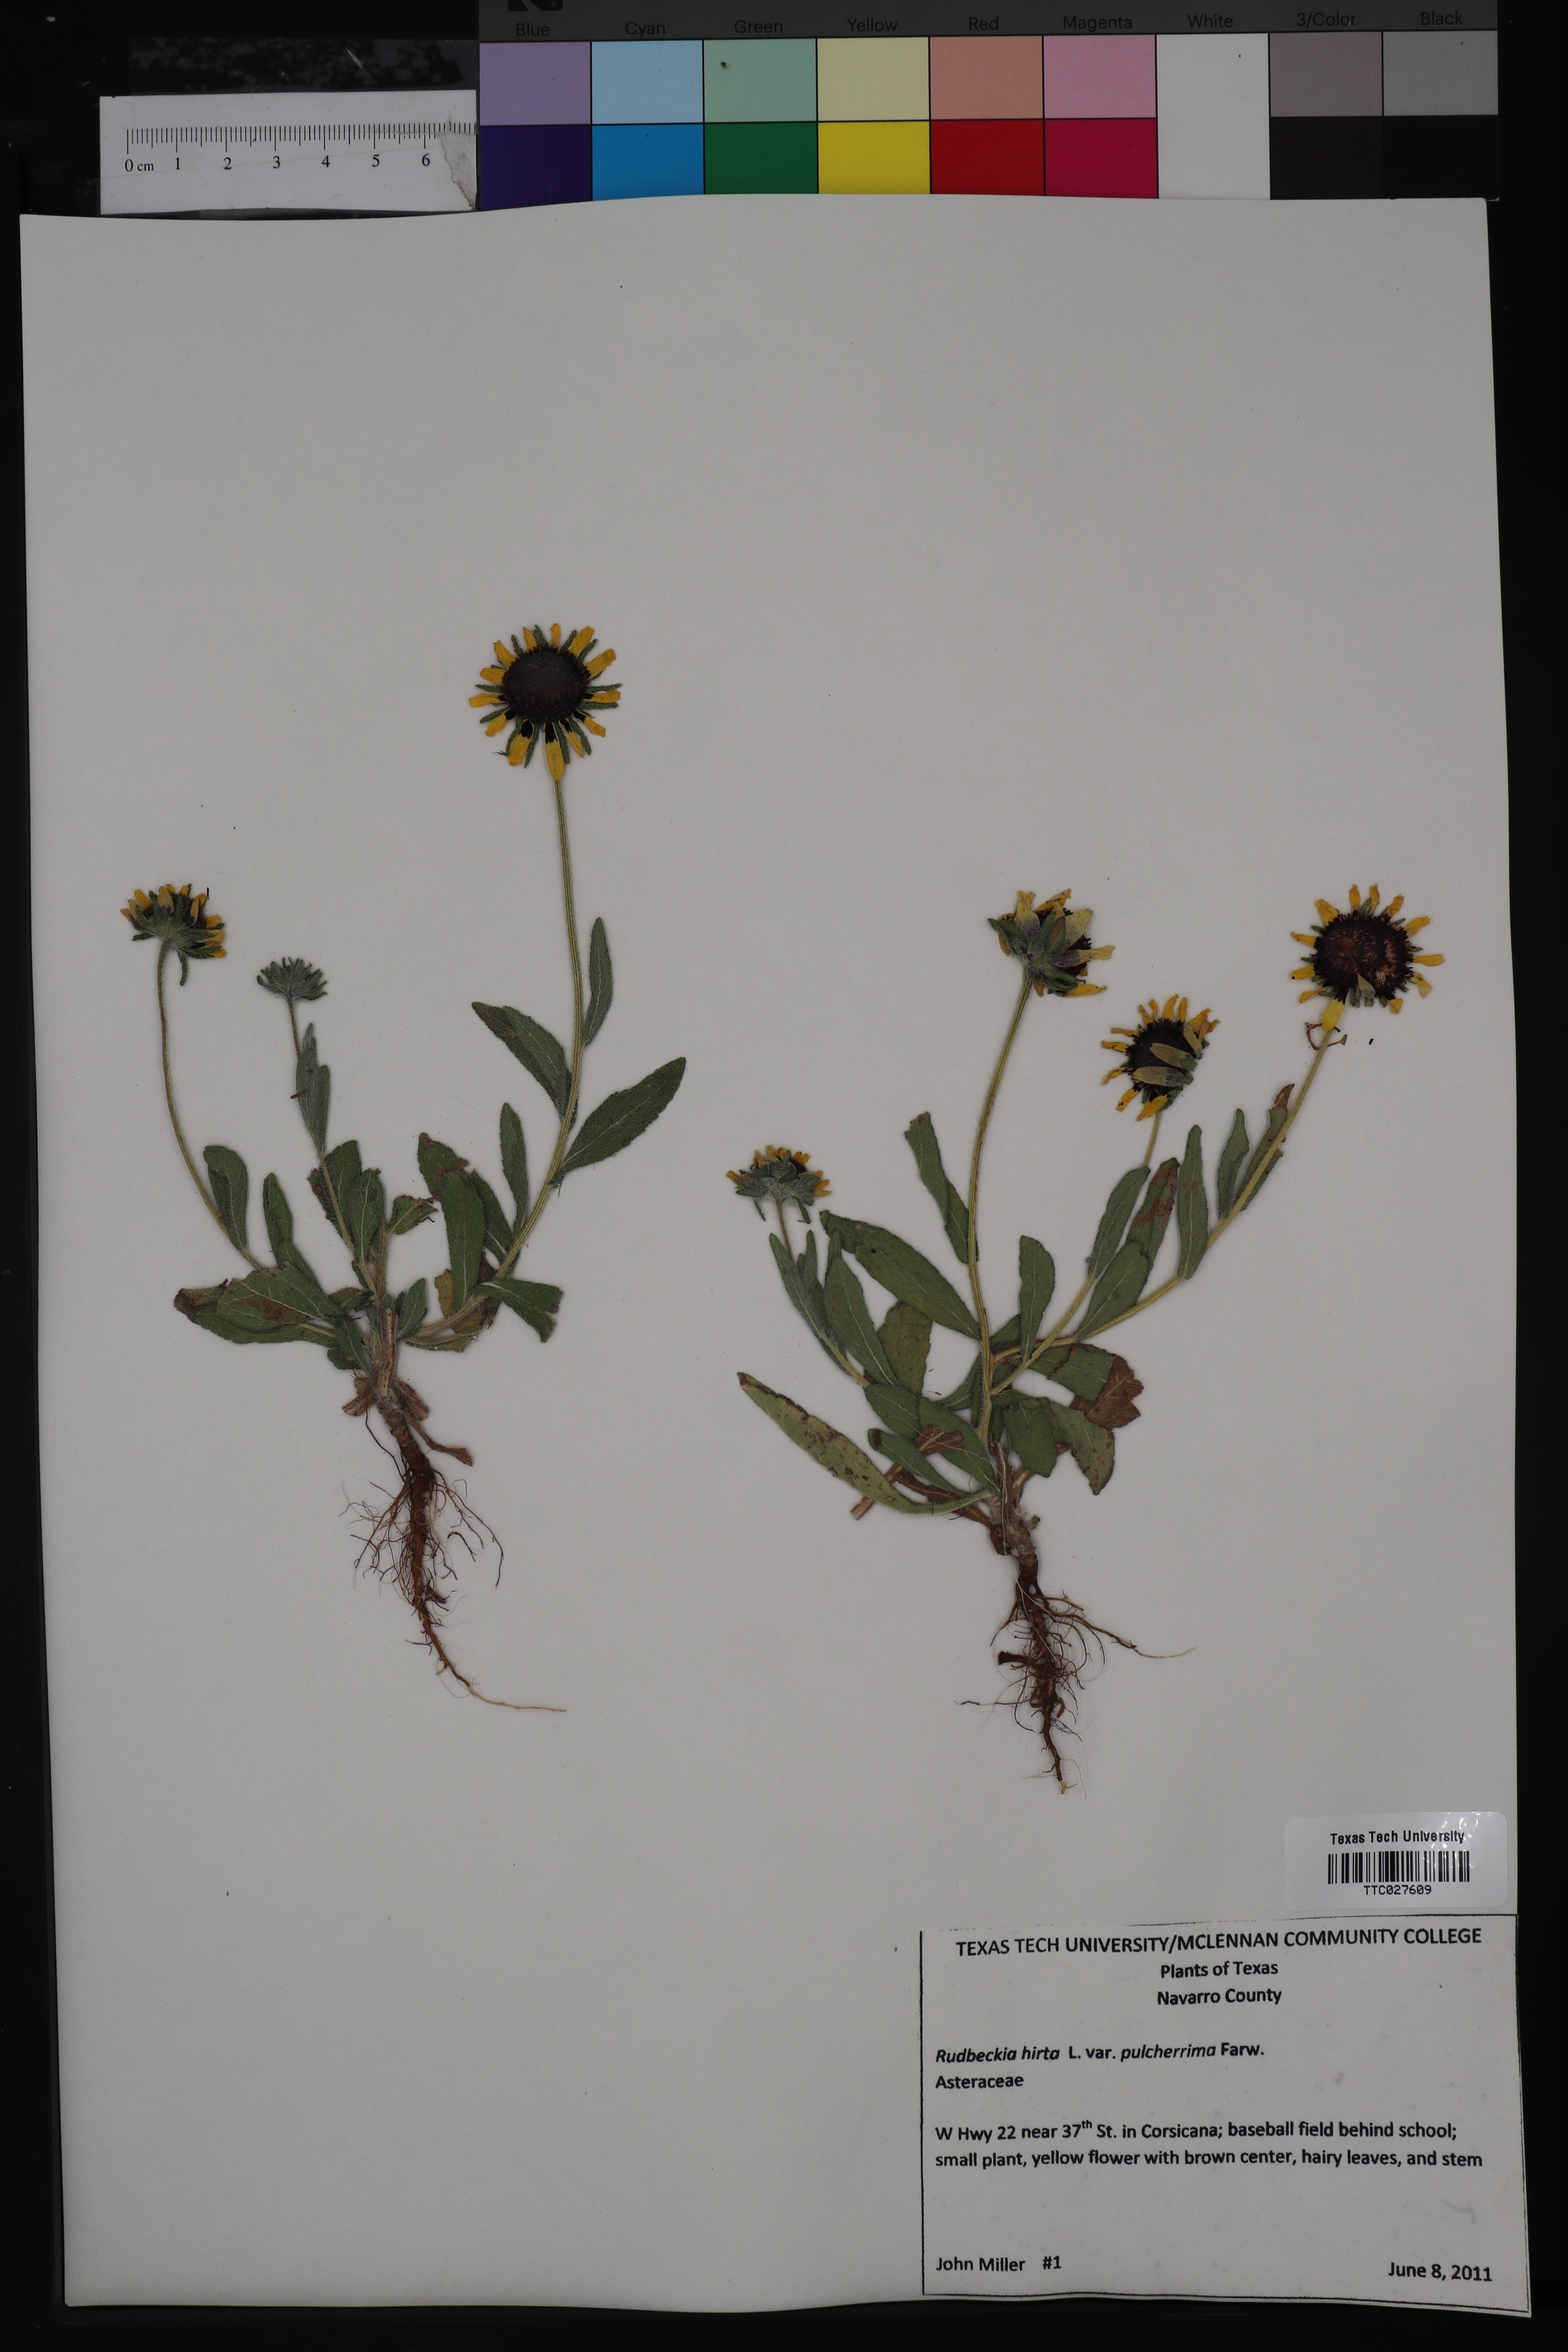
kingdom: Plantae
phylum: Tracheophyta
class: Magnoliopsida
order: Asterales
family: Asteraceae
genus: Rudbeckia
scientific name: Rudbeckia hirta
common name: Black-eyed-susan
